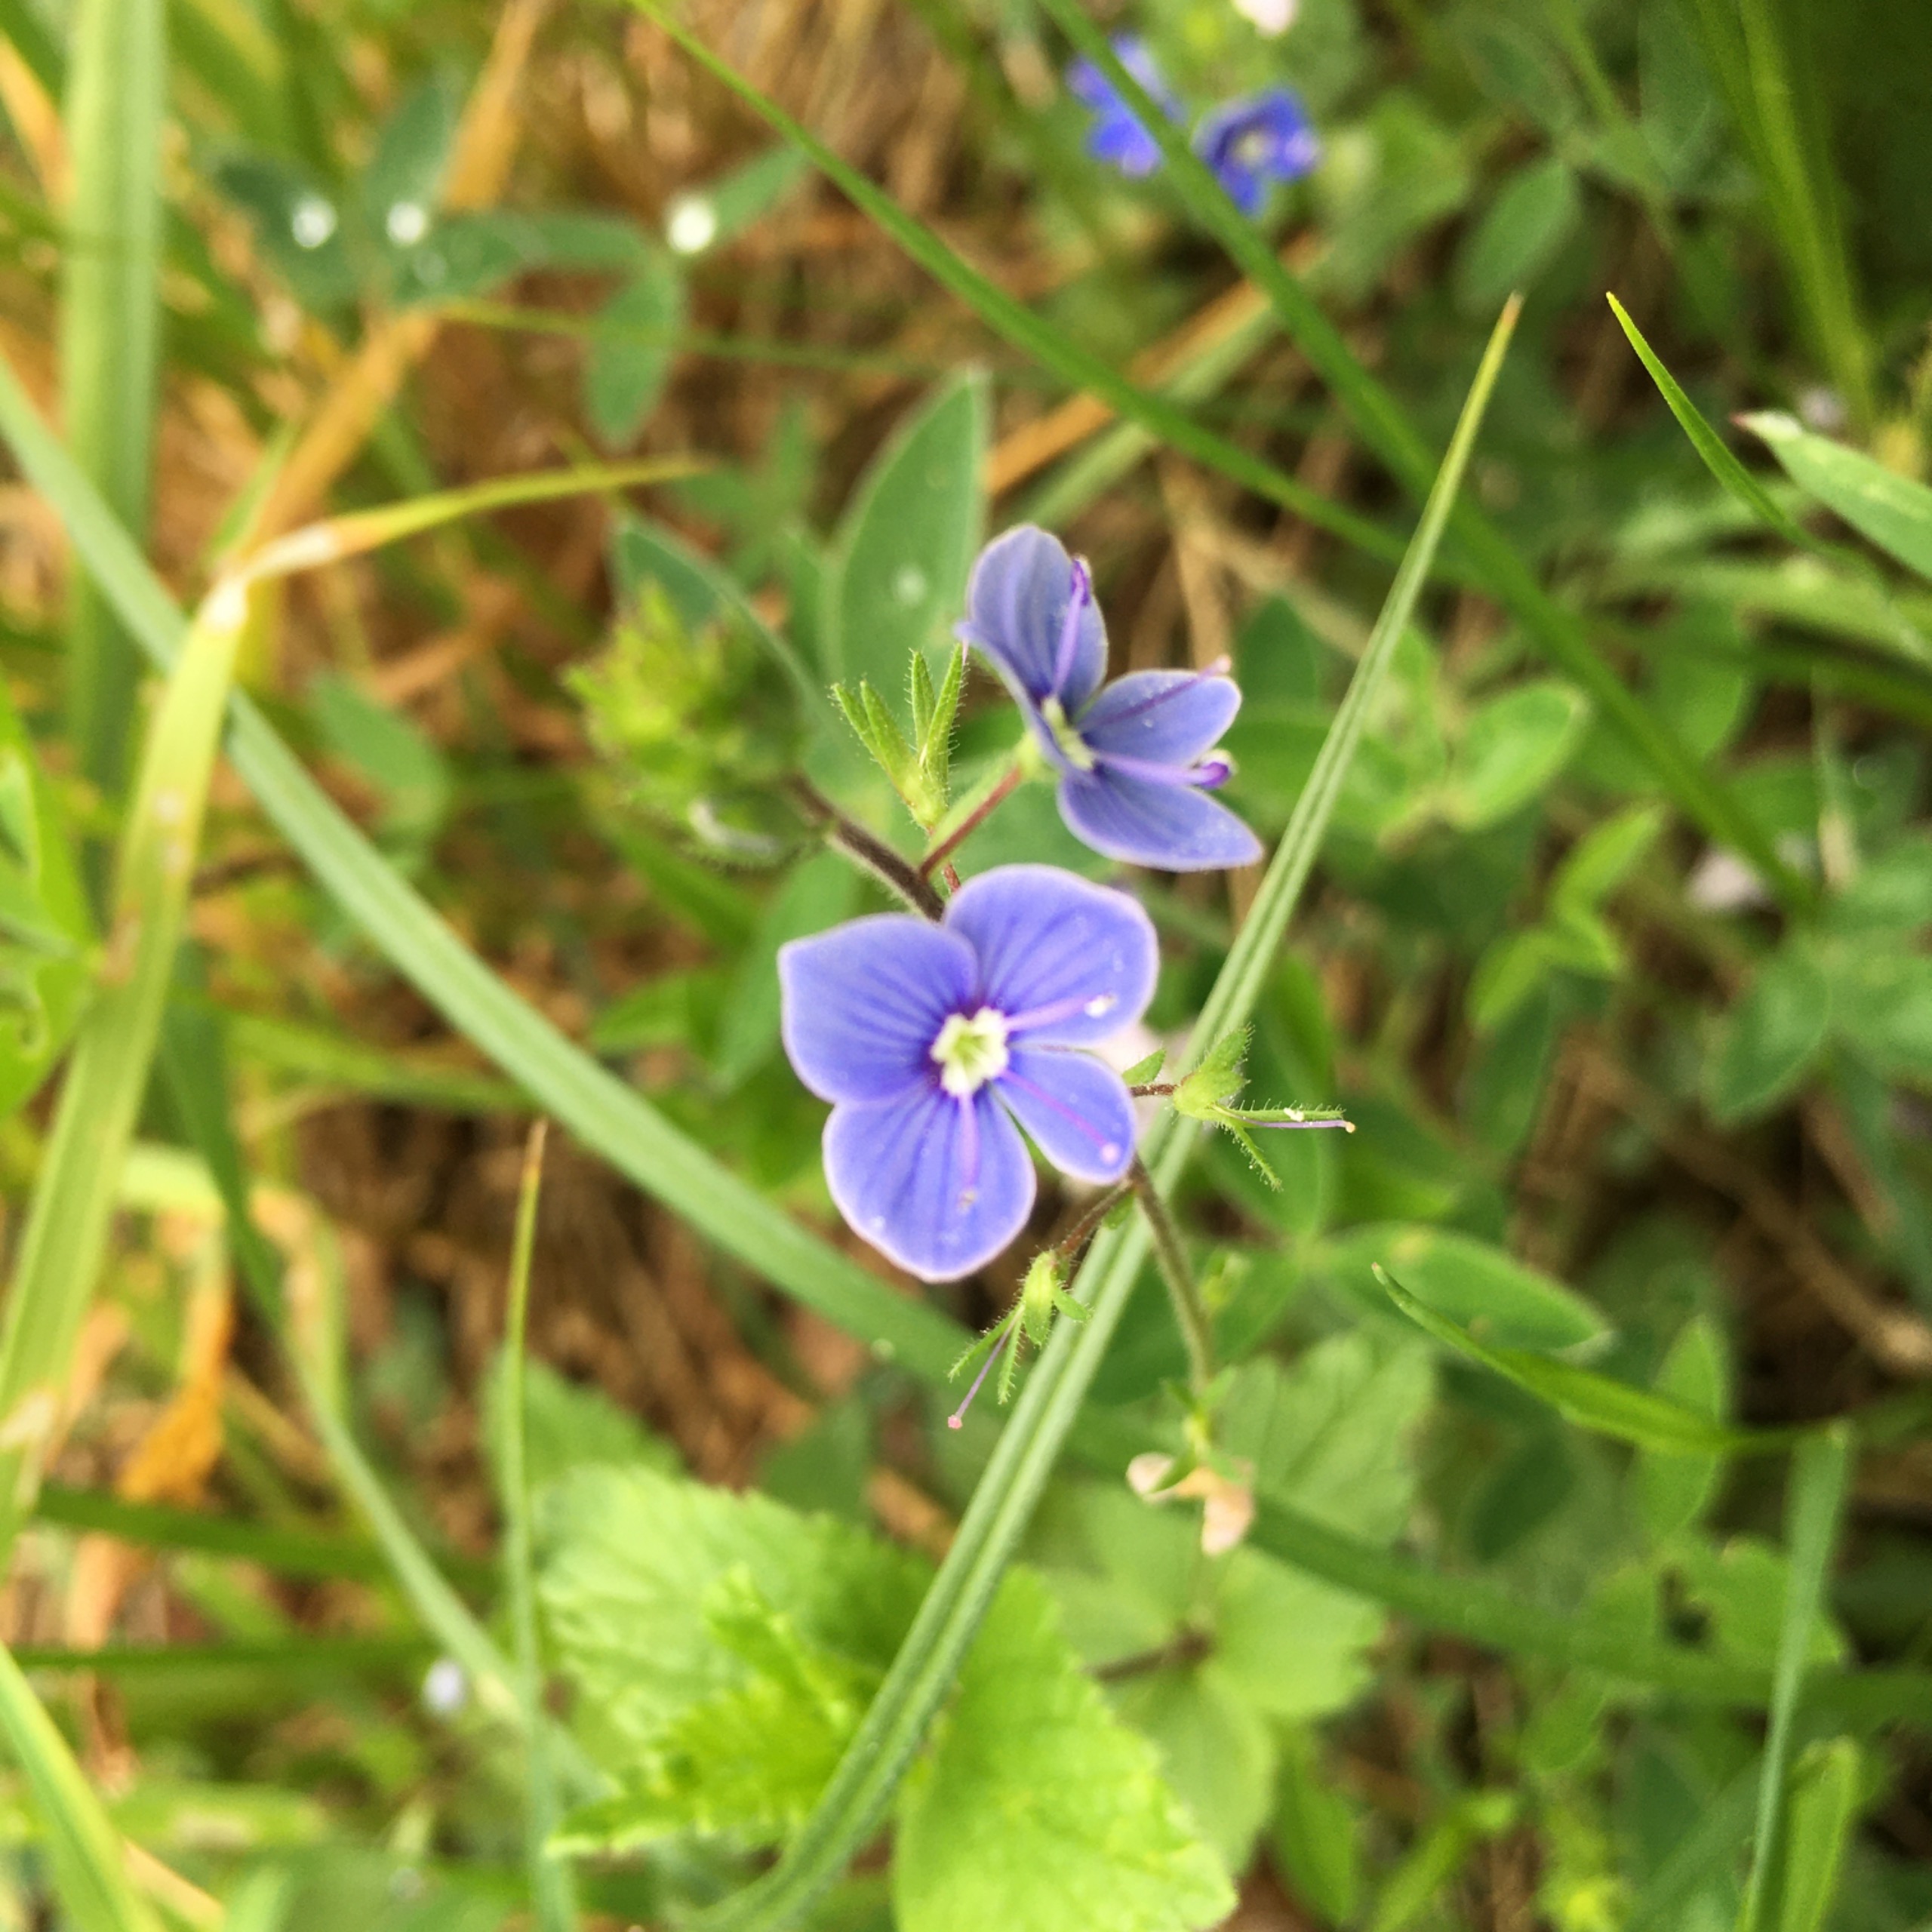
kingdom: Plantae
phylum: Tracheophyta
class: Magnoliopsida
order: Lamiales
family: Plantaginaceae
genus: Veronica
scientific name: Veronica chamaedrys
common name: Tveskægget ærenpris
